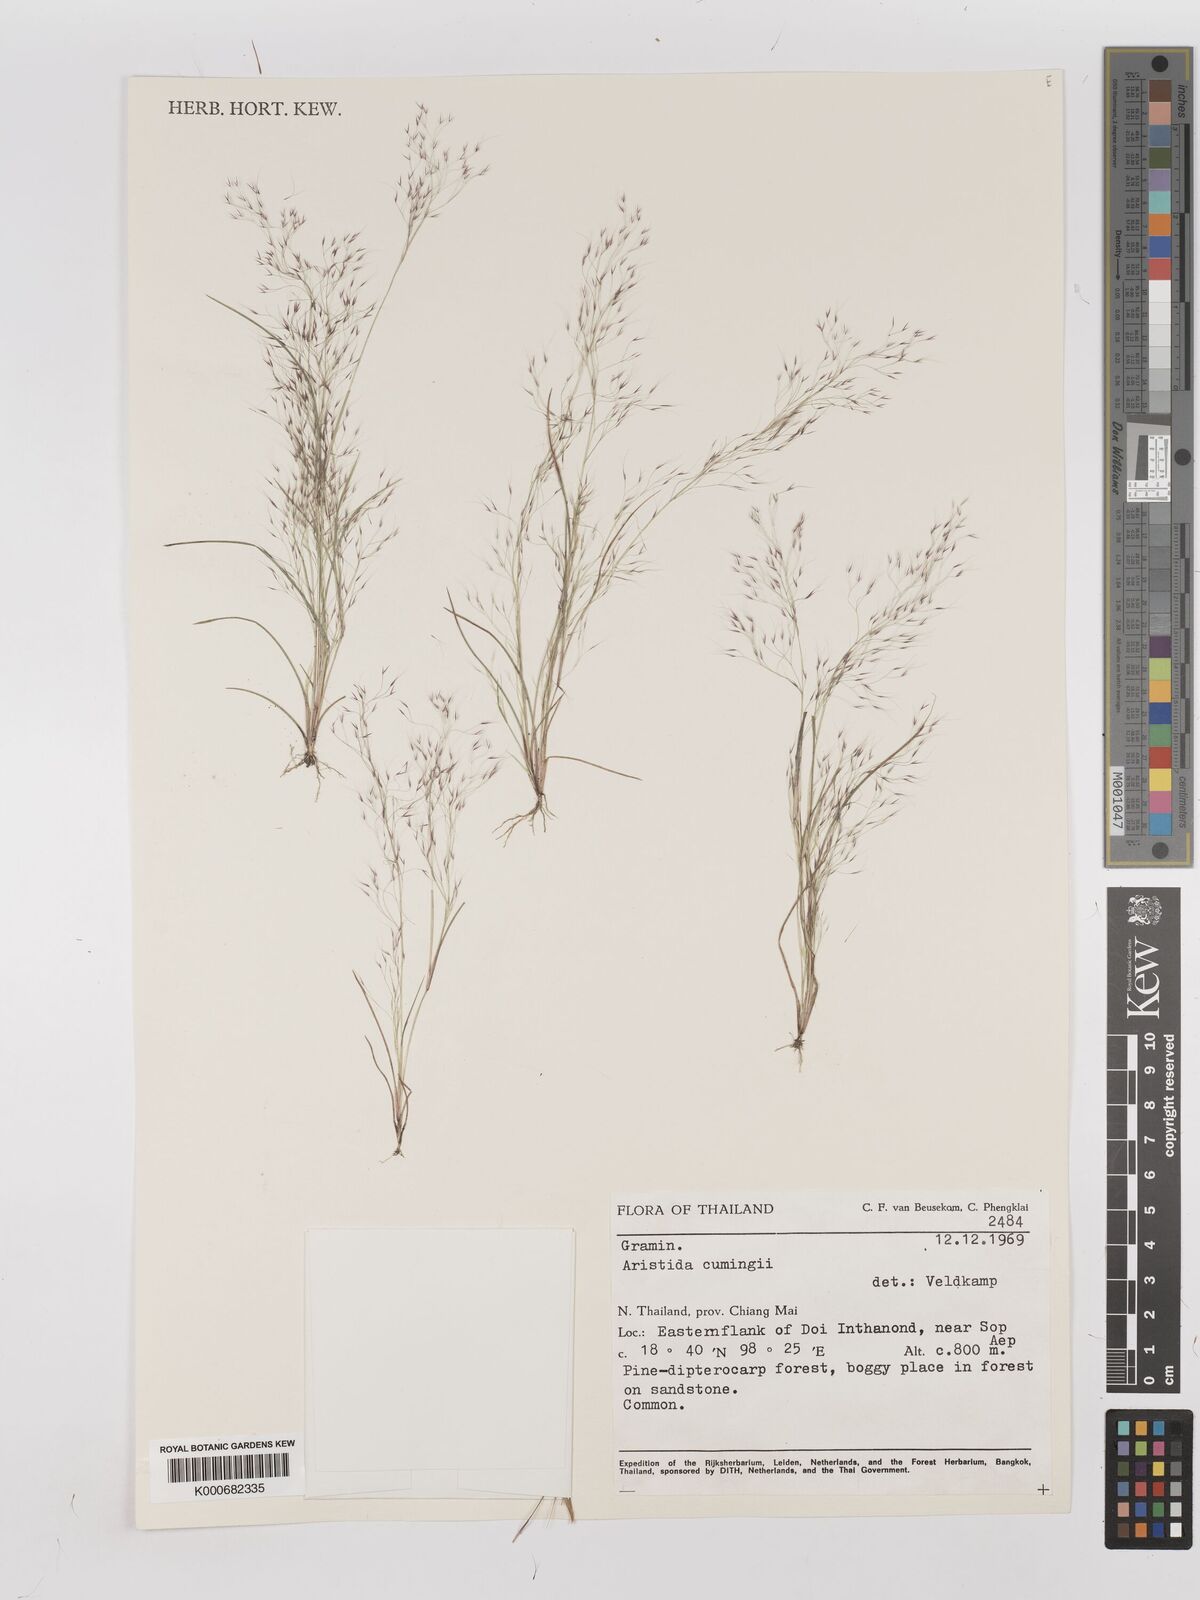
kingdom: Plantae
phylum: Tracheophyta
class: Liliopsida
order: Poales
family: Poaceae
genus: Aristida
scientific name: Aristida cumingiana
